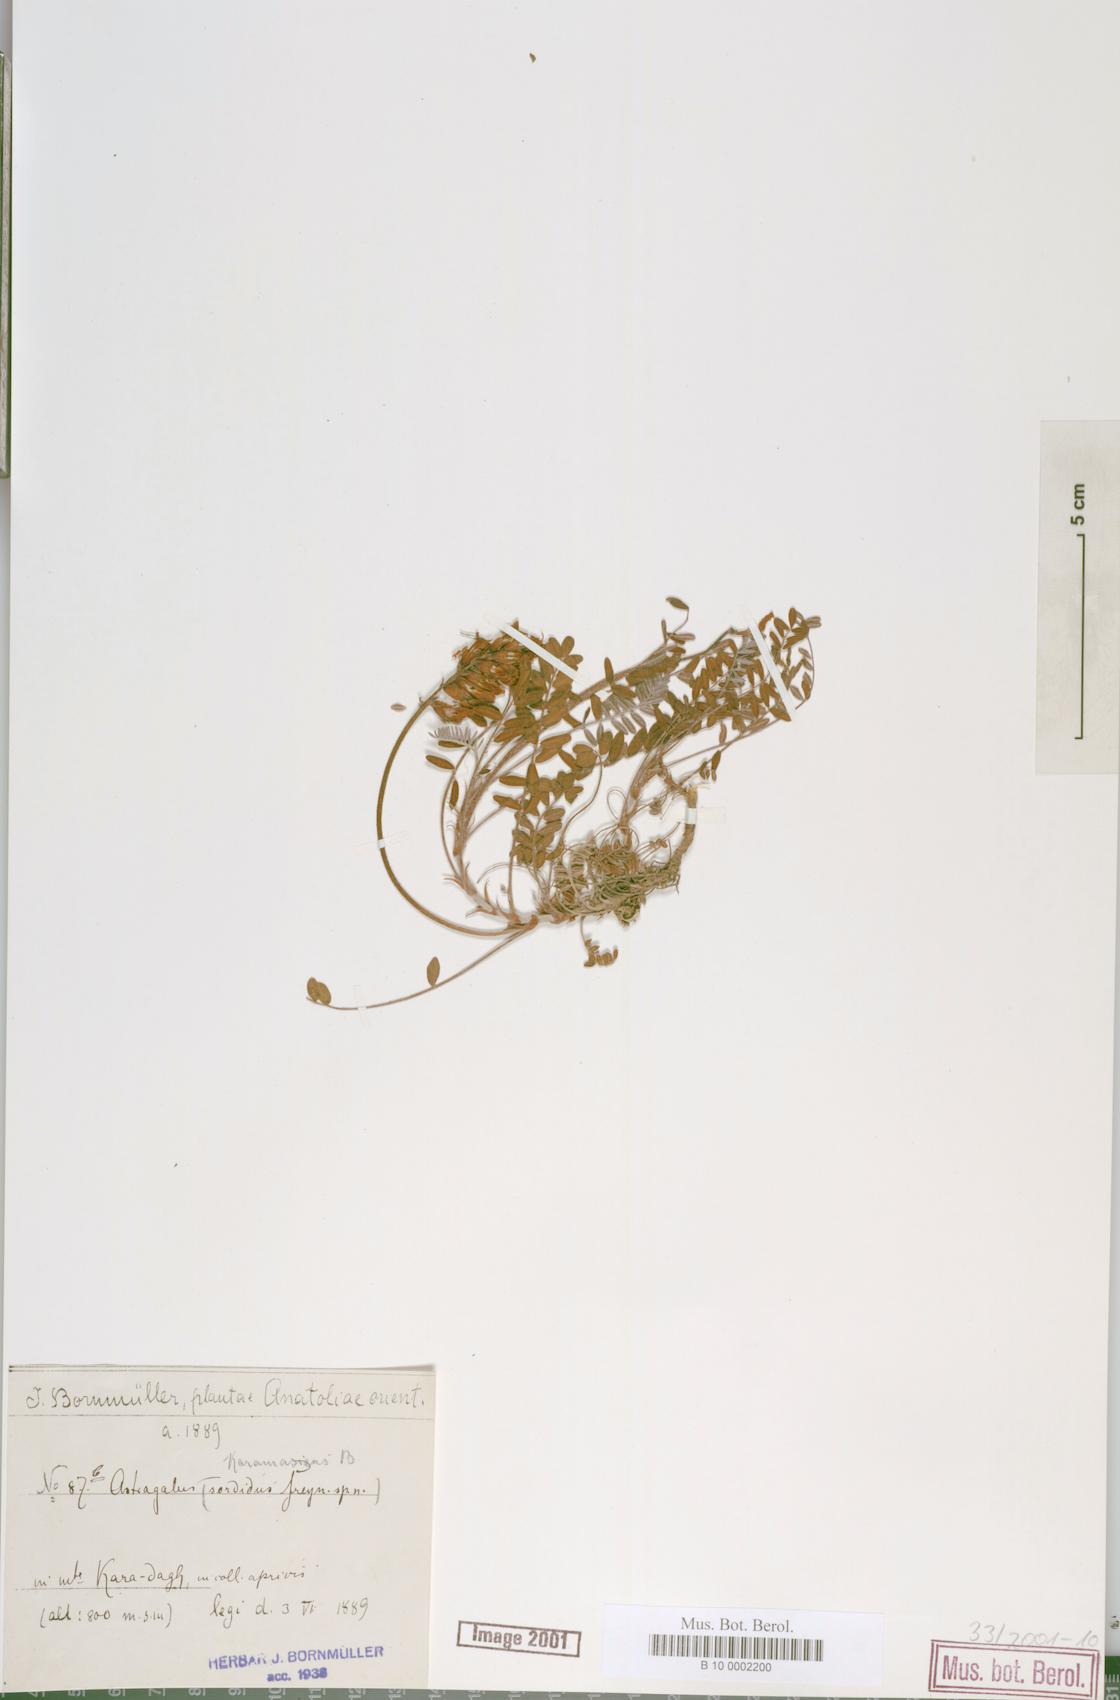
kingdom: Plantae
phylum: Tracheophyta
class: Magnoliopsida
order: Fabales
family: Fabaceae
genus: Astragalus
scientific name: Astragalus karamasicus
